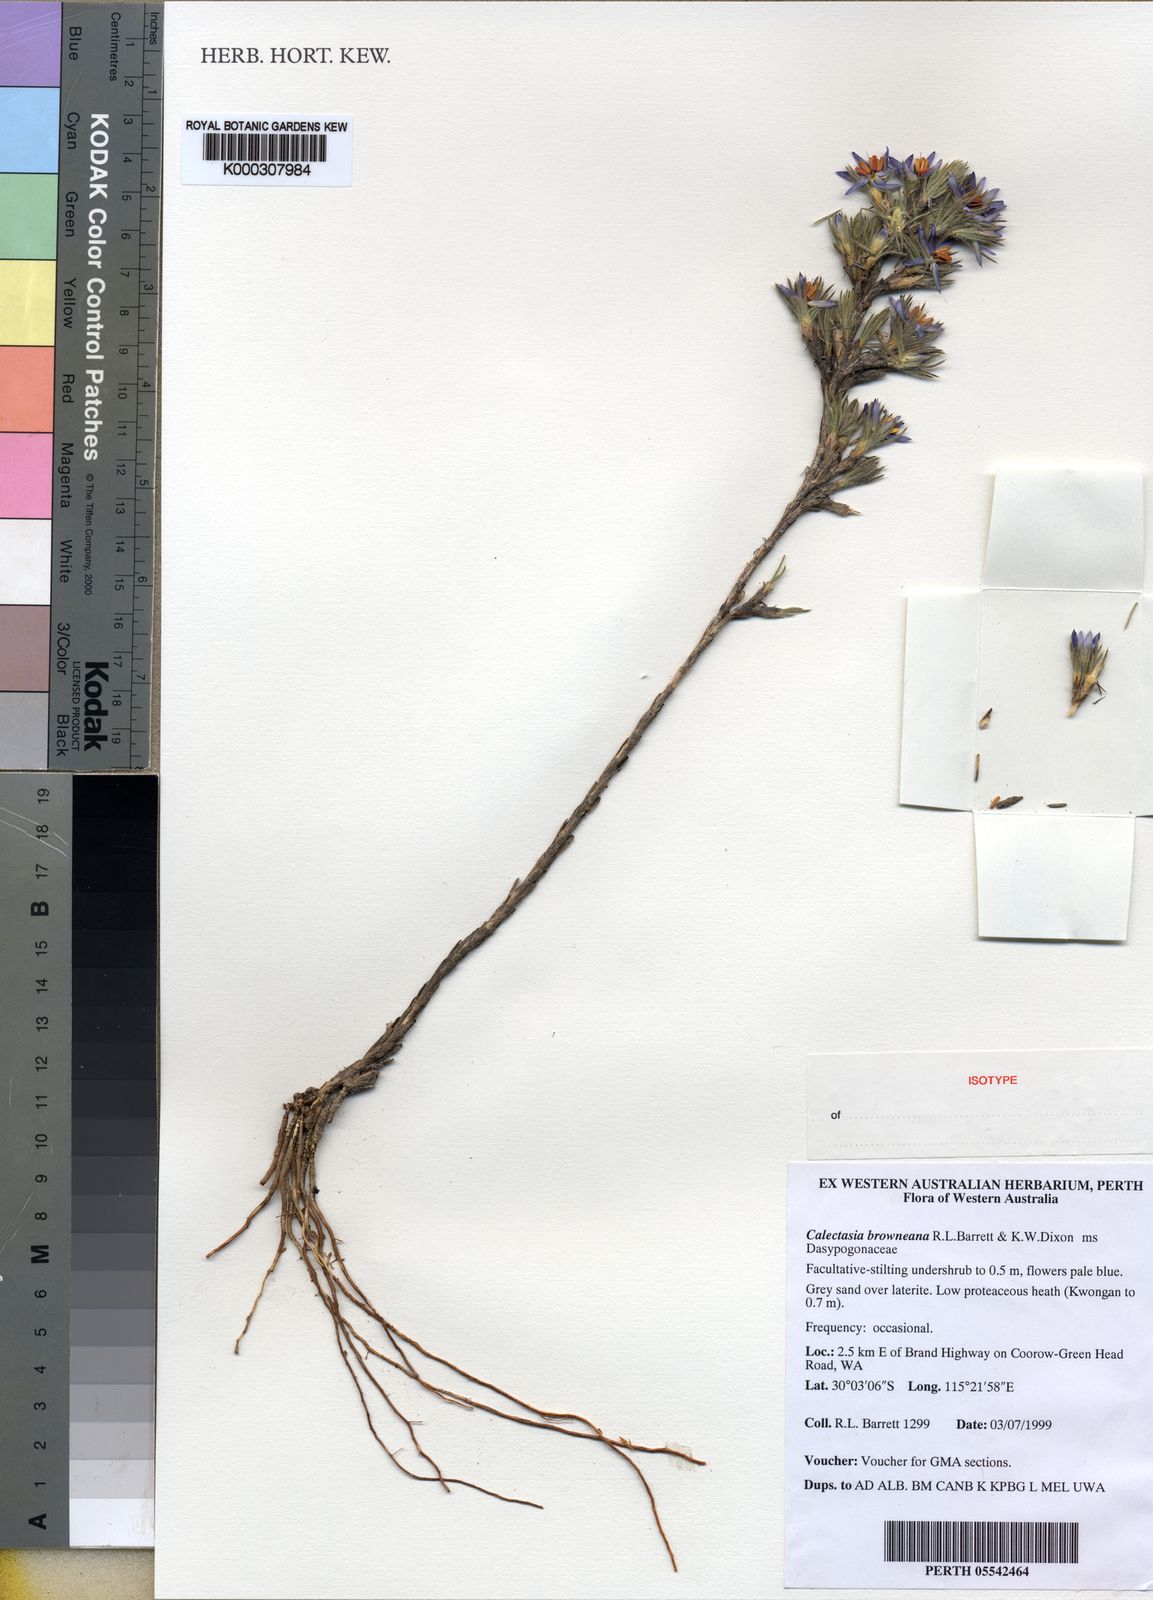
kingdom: Plantae
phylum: Tracheophyta
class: Liliopsida
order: Arecales
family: Dasypogonaceae
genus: Calectasia
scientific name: Calectasia
